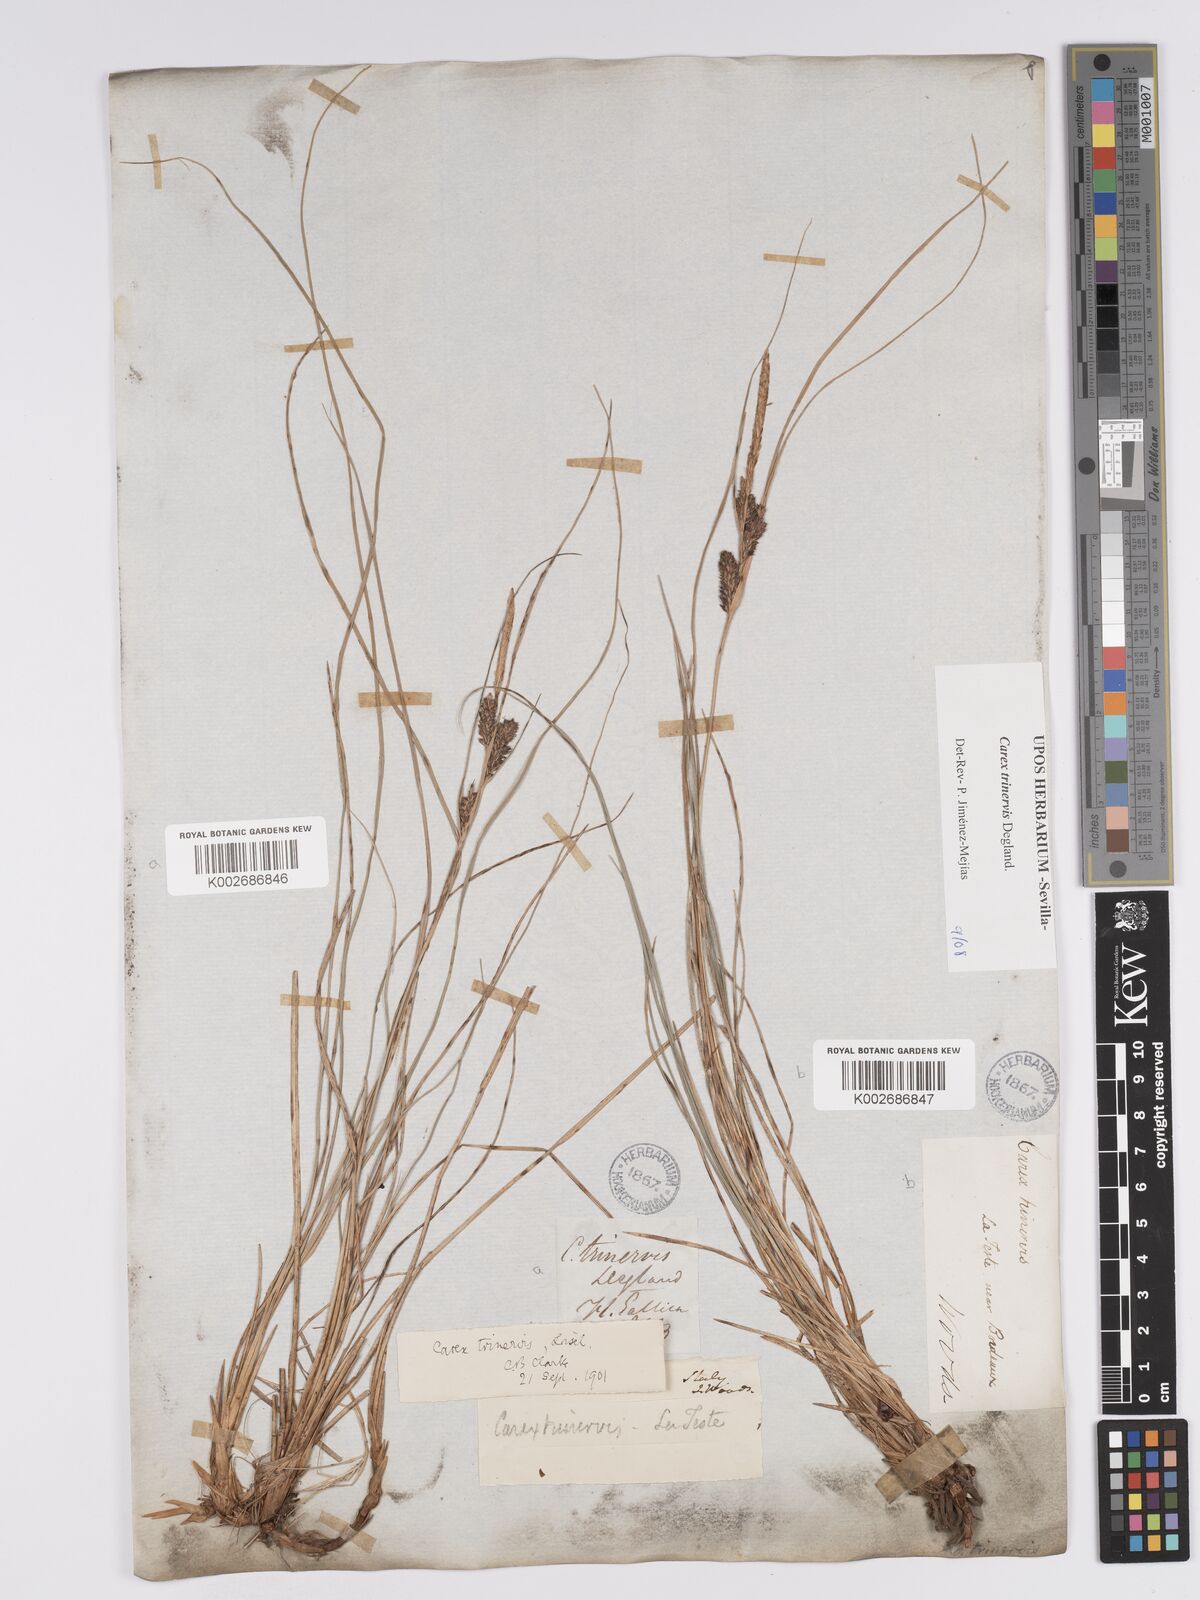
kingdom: Plantae
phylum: Tracheophyta
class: Liliopsida
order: Poales
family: Cyperaceae
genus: Carex
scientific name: Carex trinervis
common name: Three-nerved sedge
